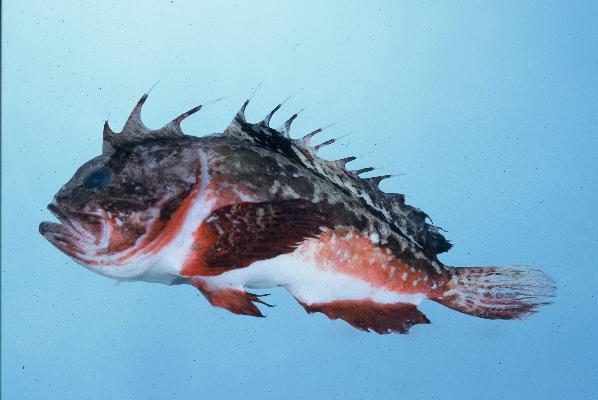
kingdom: Animalia
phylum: Chordata
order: Scorpaeniformes
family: Tetrarogidae
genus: Richardsonichthys
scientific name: Richardsonichthys leucogaster
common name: Whiteface waspfish
